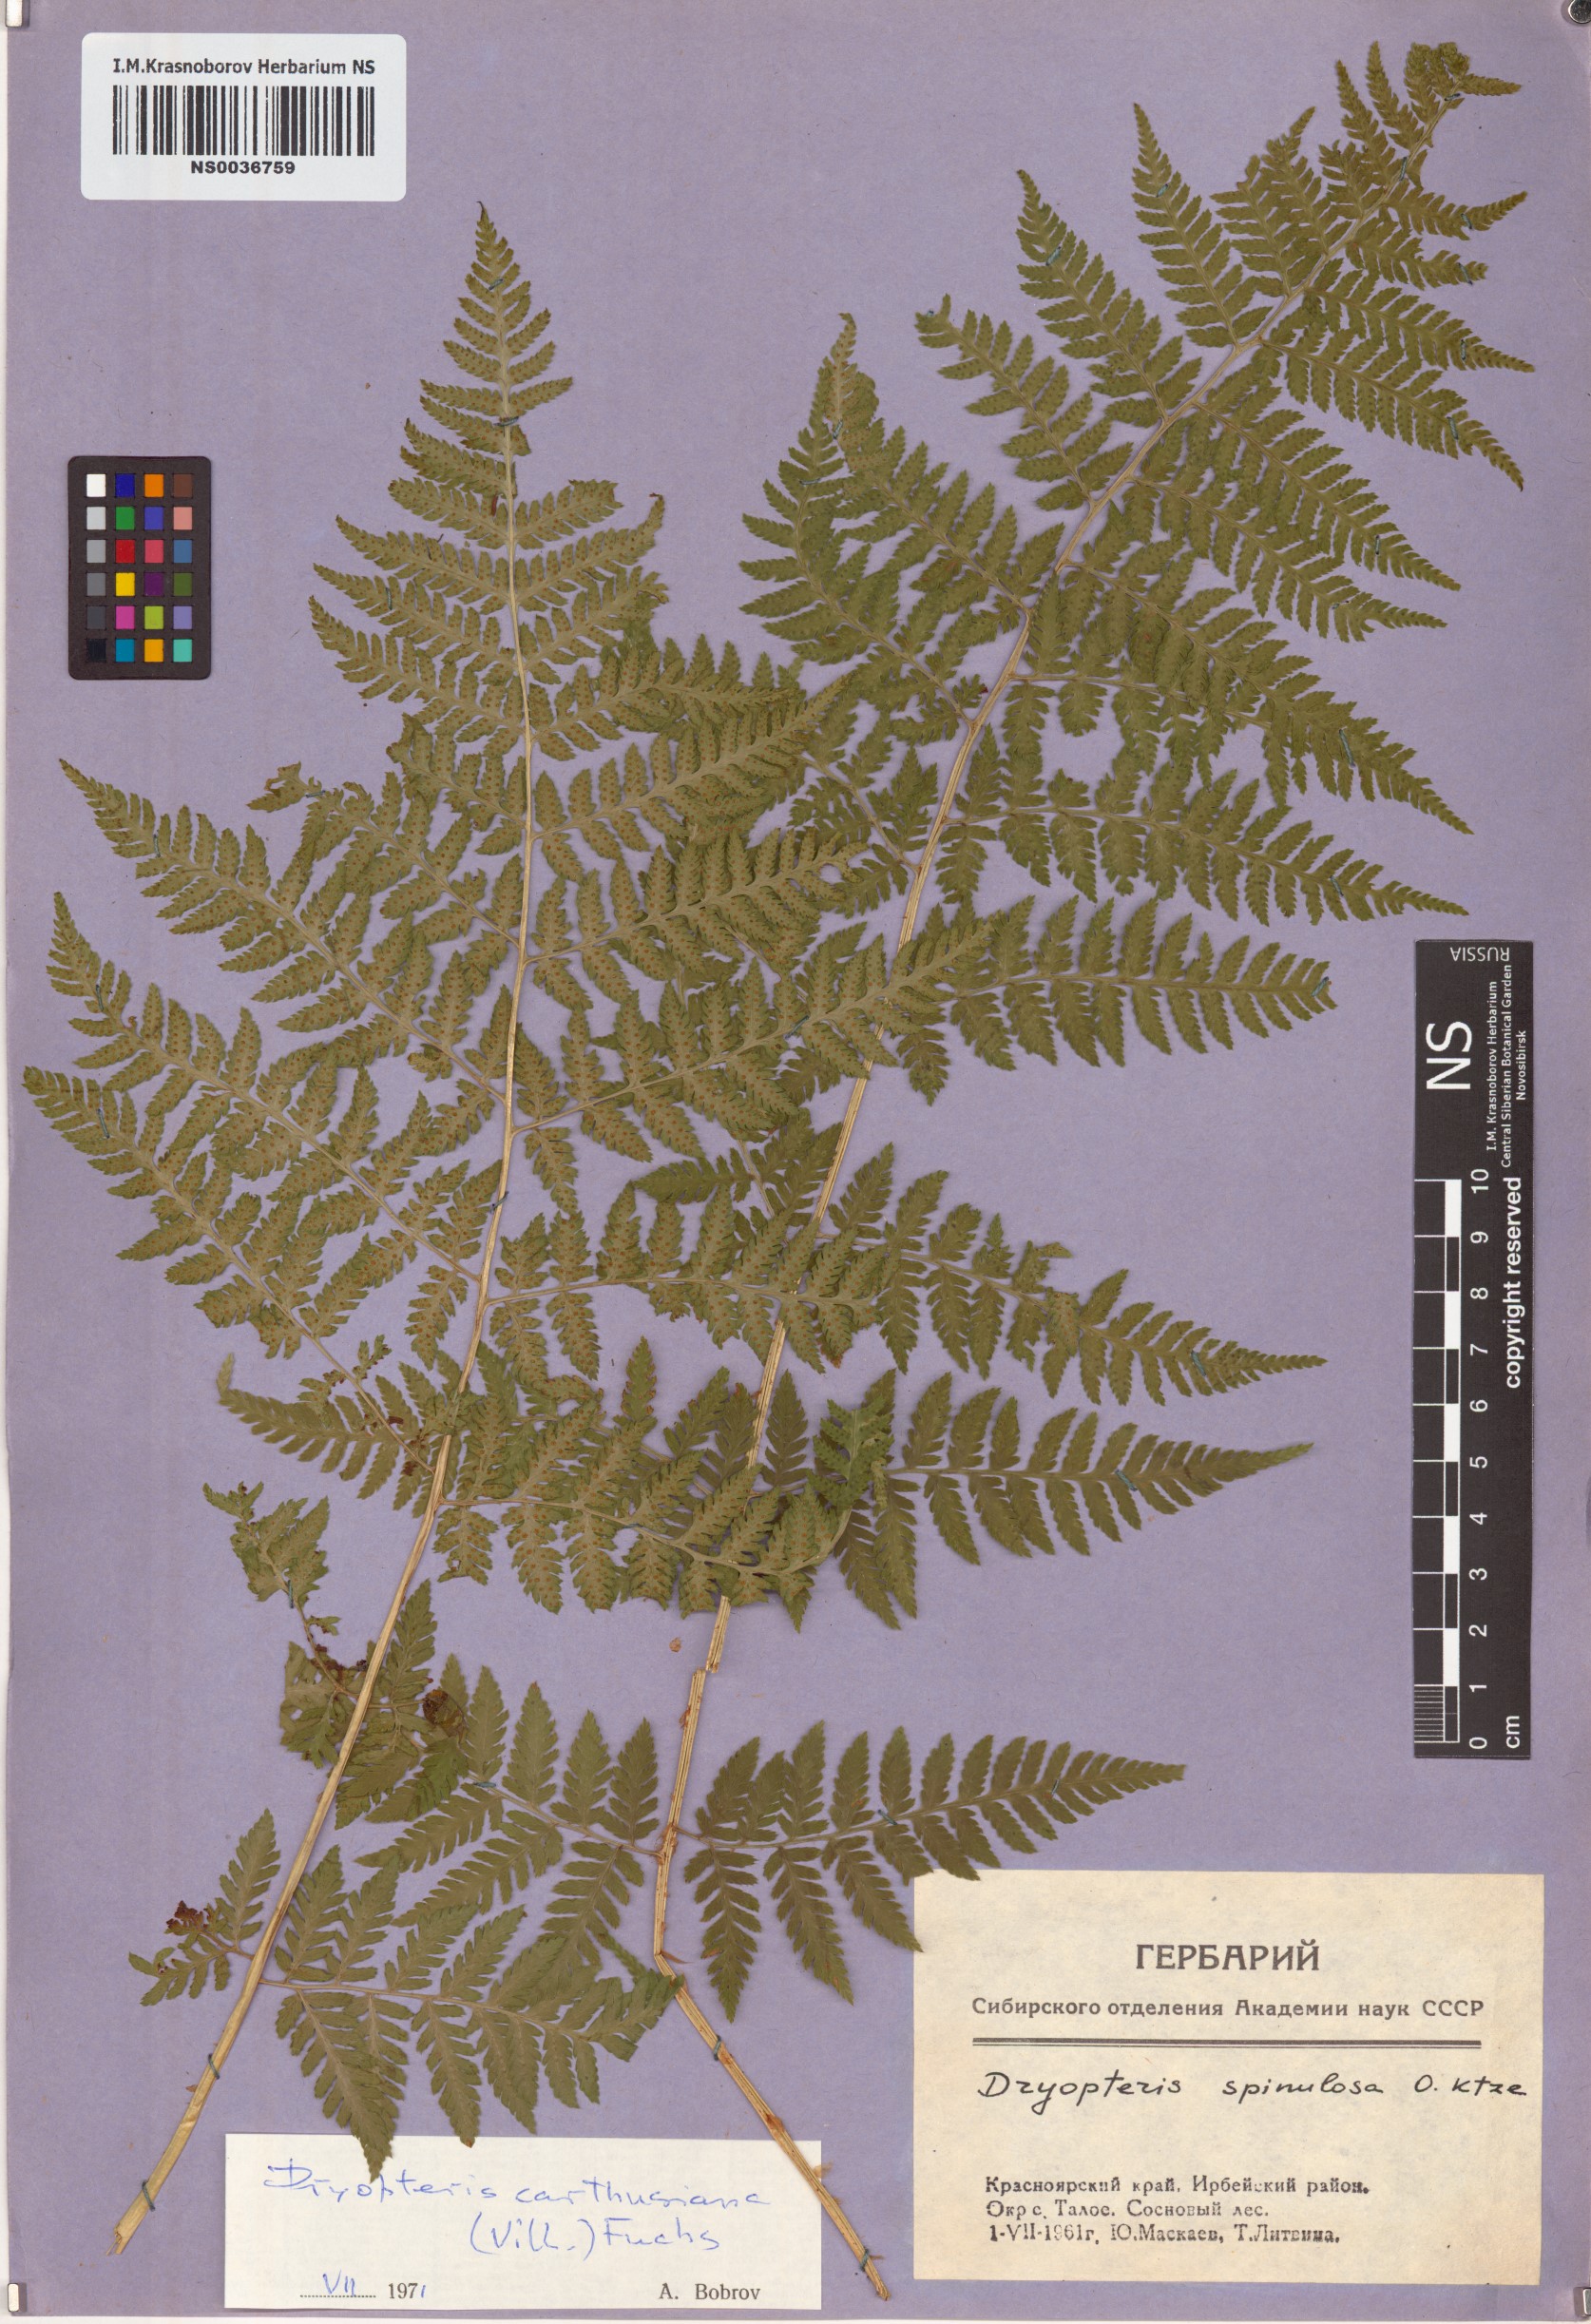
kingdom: Plantae
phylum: Tracheophyta
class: Polypodiopsida
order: Polypodiales
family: Dryopteridaceae
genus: Dryopteris
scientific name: Dryopteris carthusiana
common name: Narrow buckler-fern
